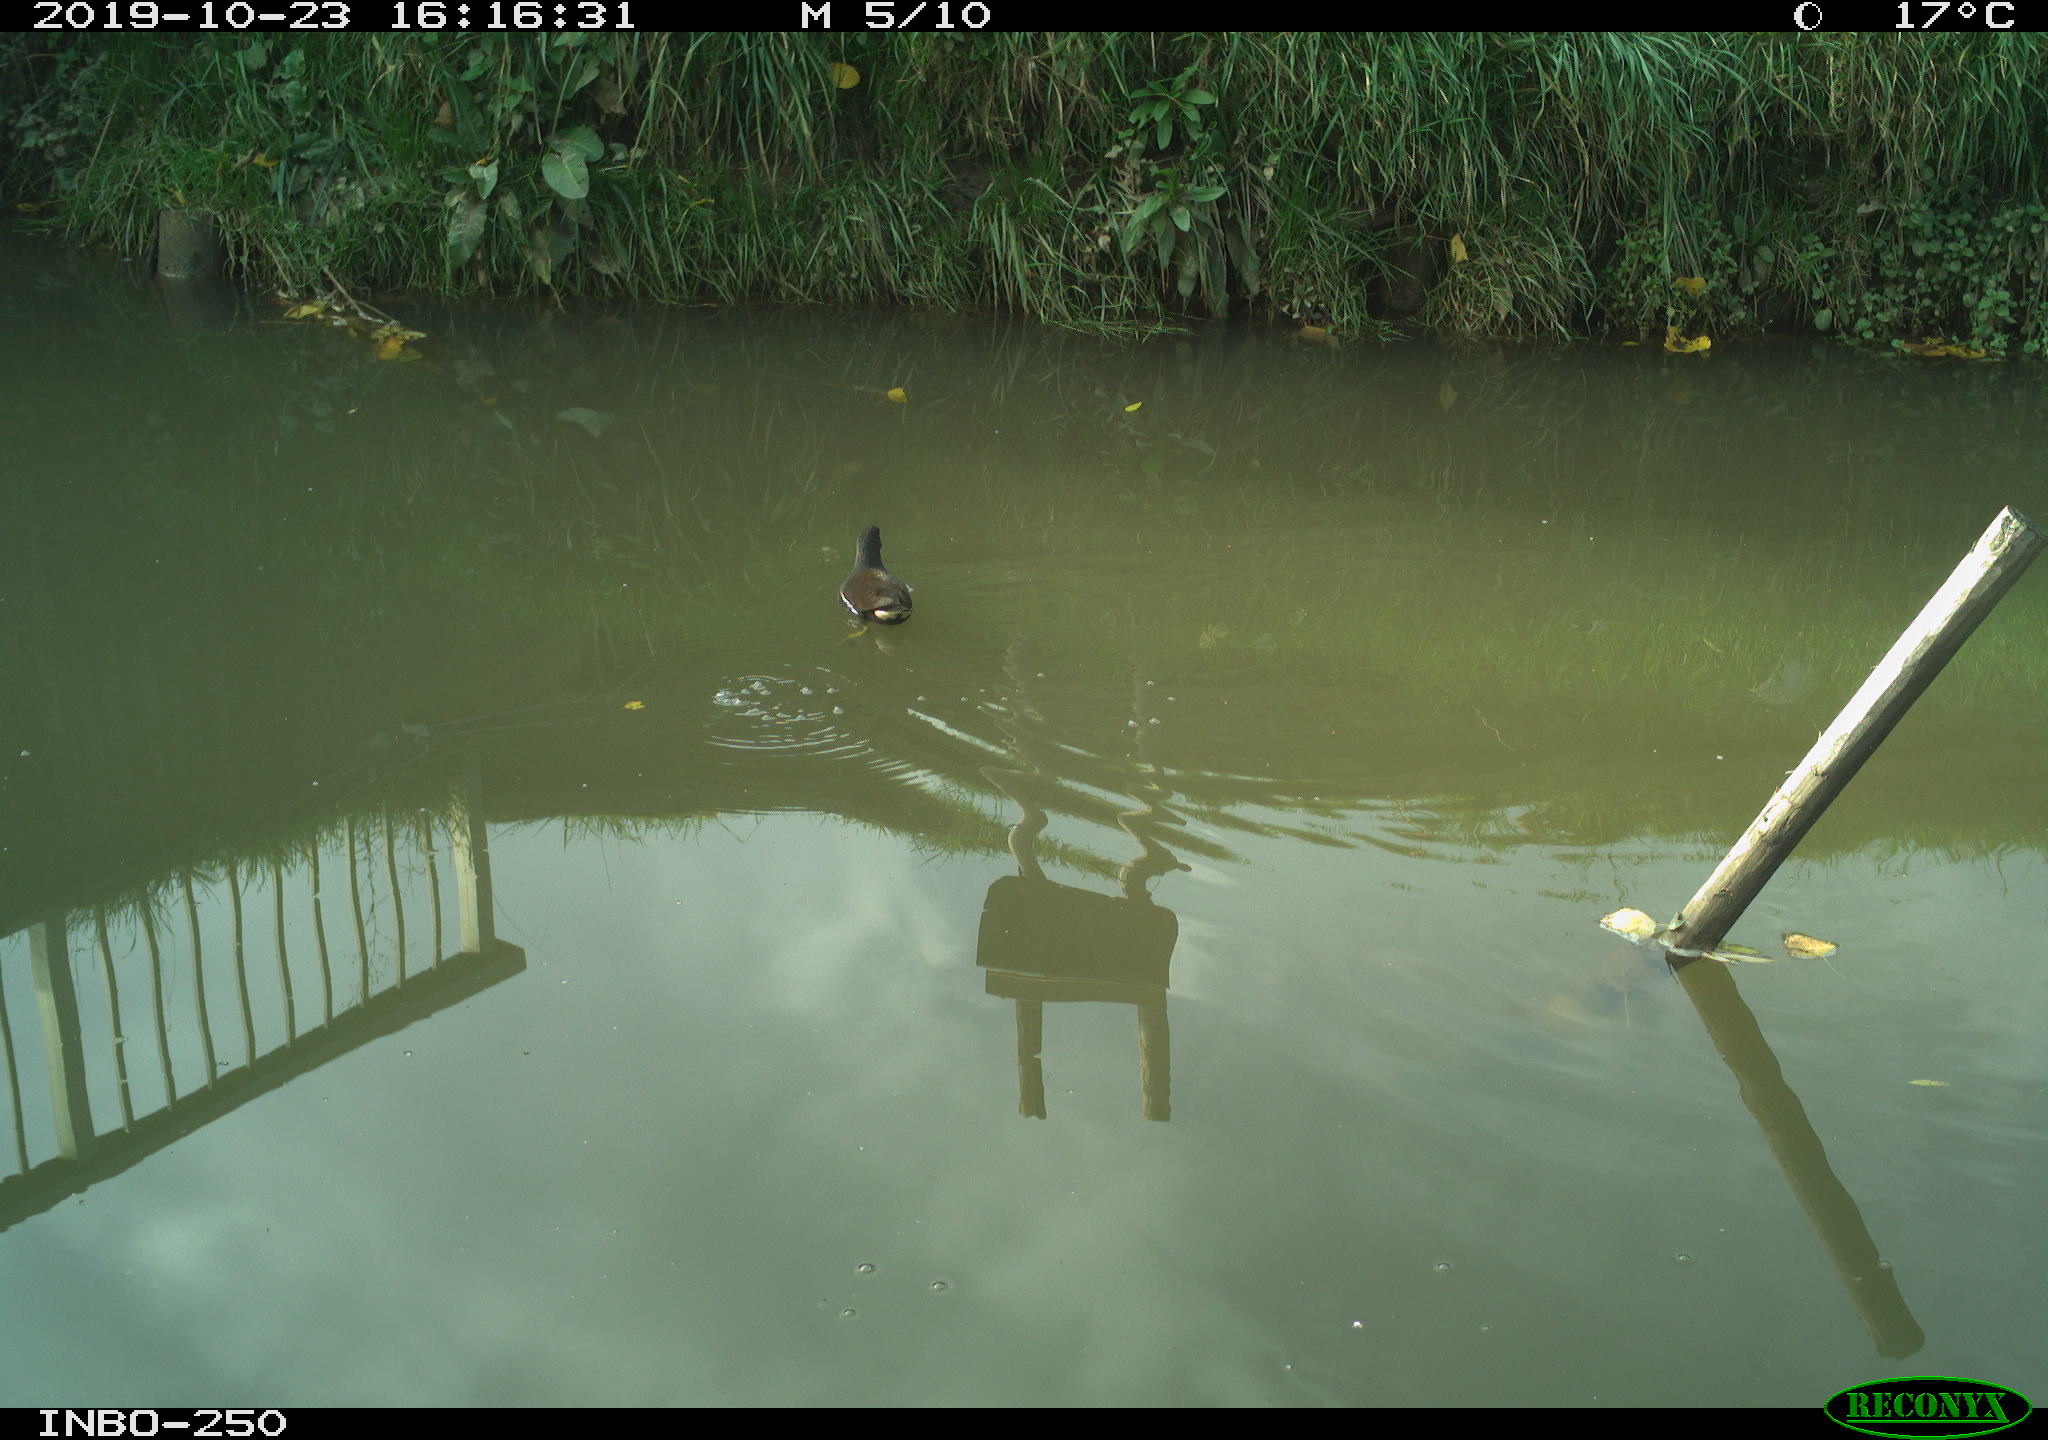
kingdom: Animalia
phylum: Chordata
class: Aves
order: Gruiformes
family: Rallidae
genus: Gallinula
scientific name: Gallinula chloropus
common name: Common moorhen
